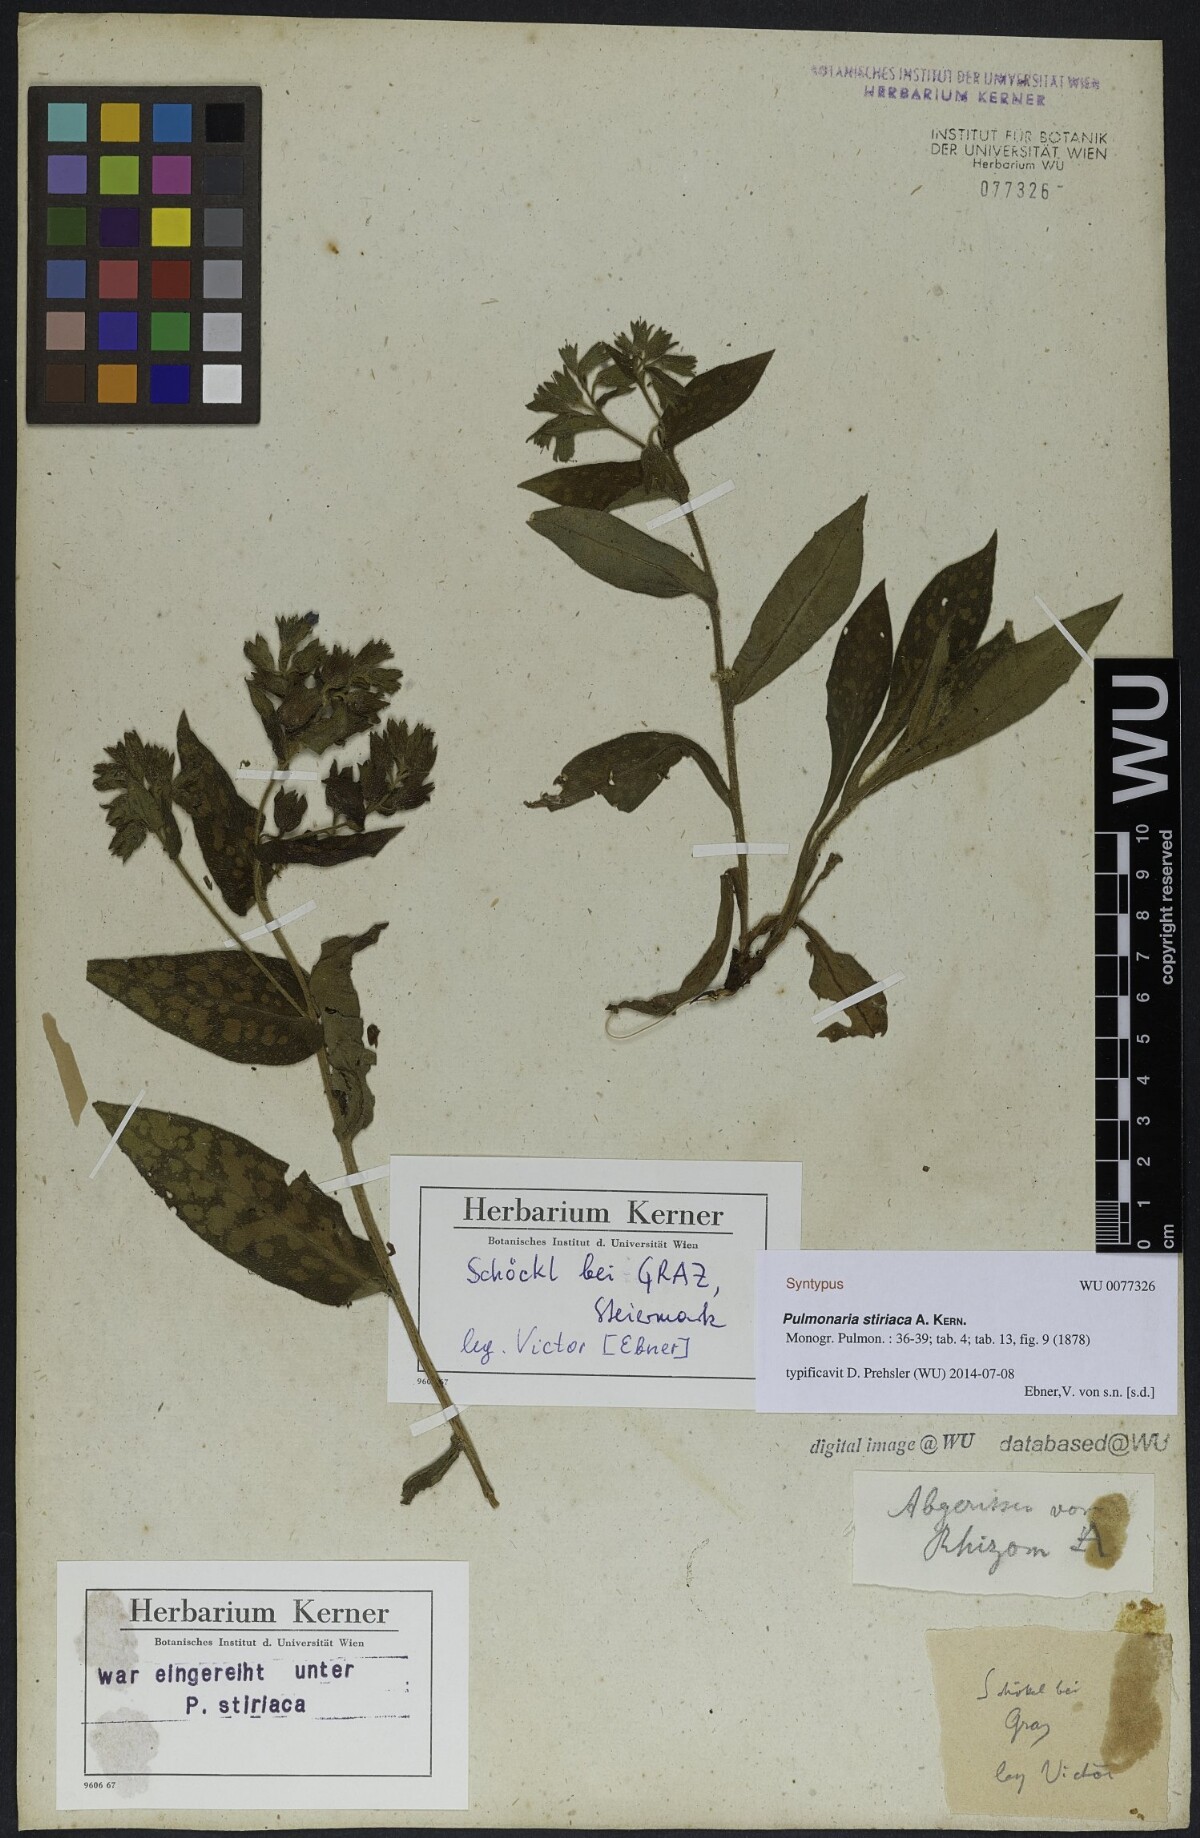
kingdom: Plantae
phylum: Tracheophyta
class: Magnoliopsida
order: Boraginales
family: Boraginaceae
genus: Pulmonaria
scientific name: Pulmonaria stiriaca
